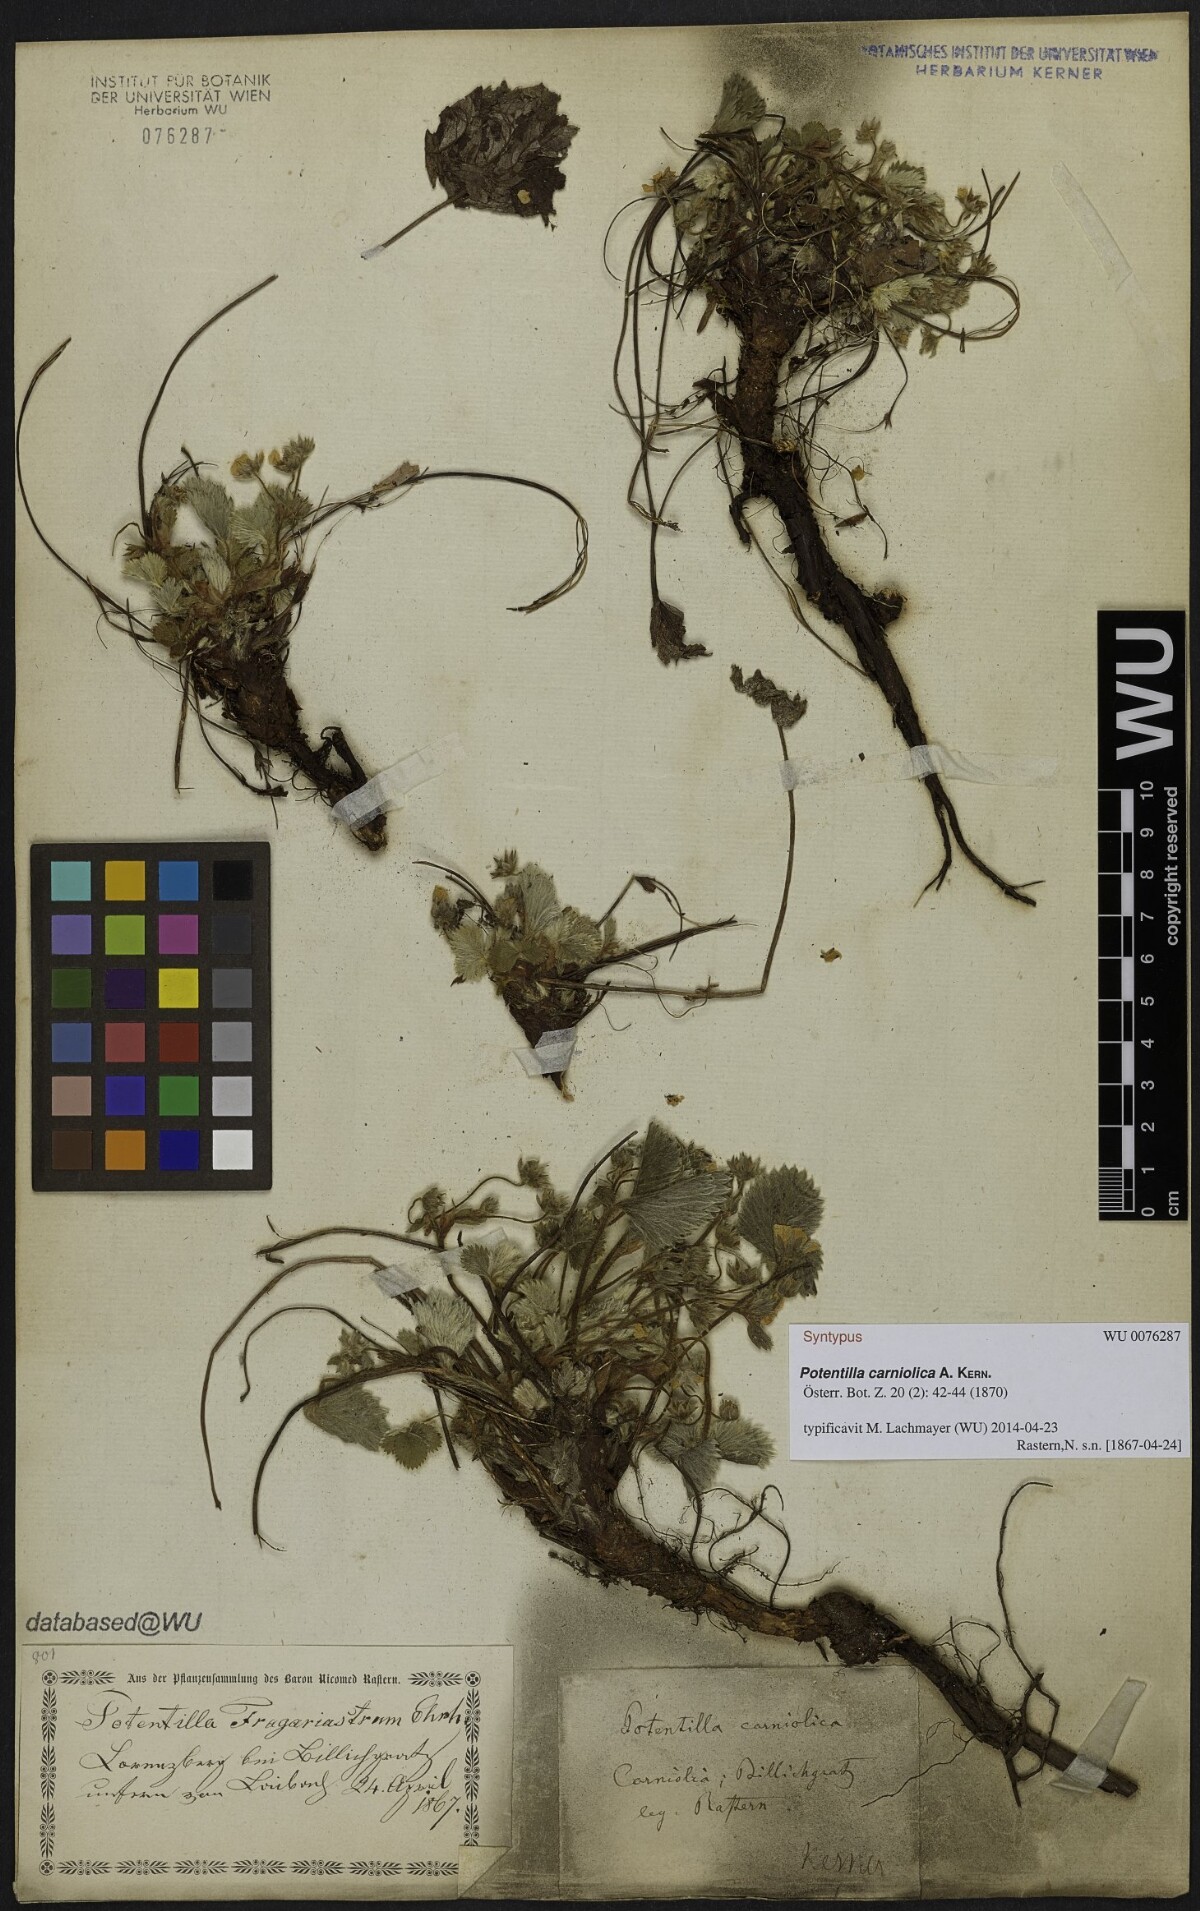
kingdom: Plantae
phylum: Tracheophyta
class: Magnoliopsida
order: Rosales
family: Rosaceae
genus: Potentilla
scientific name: Potentilla carniolica
